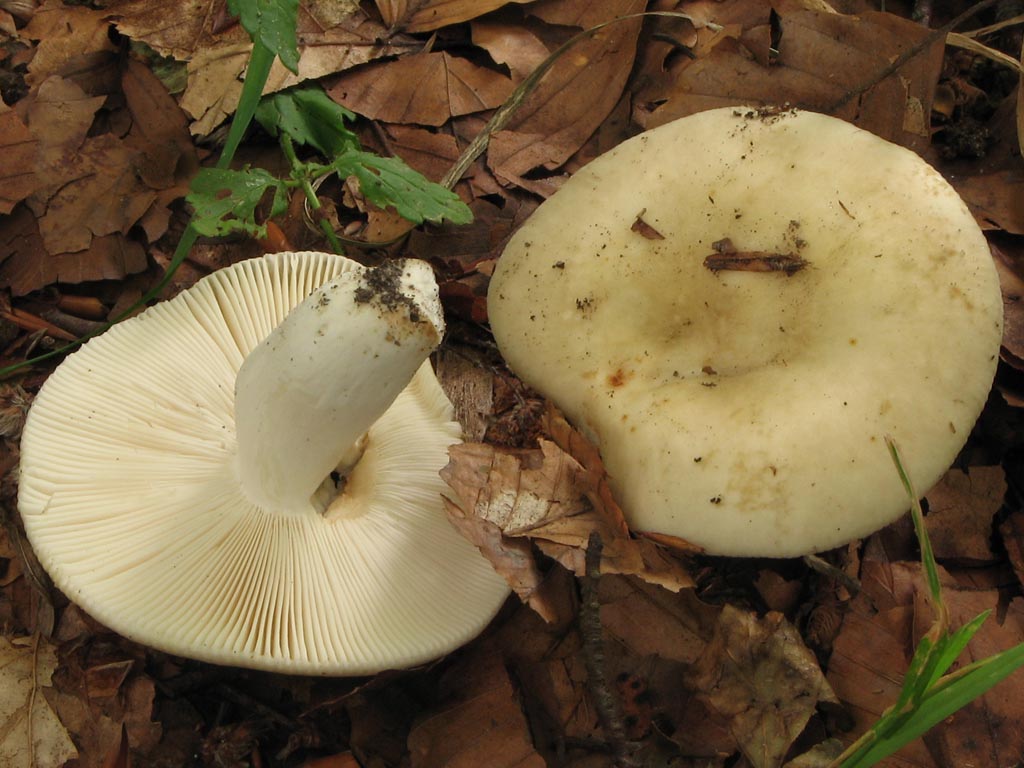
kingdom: Fungi
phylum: Basidiomycota
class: Agaricomycetes
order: Russulales
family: Russulaceae
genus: Russula
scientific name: Russula cyanoxantha
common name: broget skørhat
